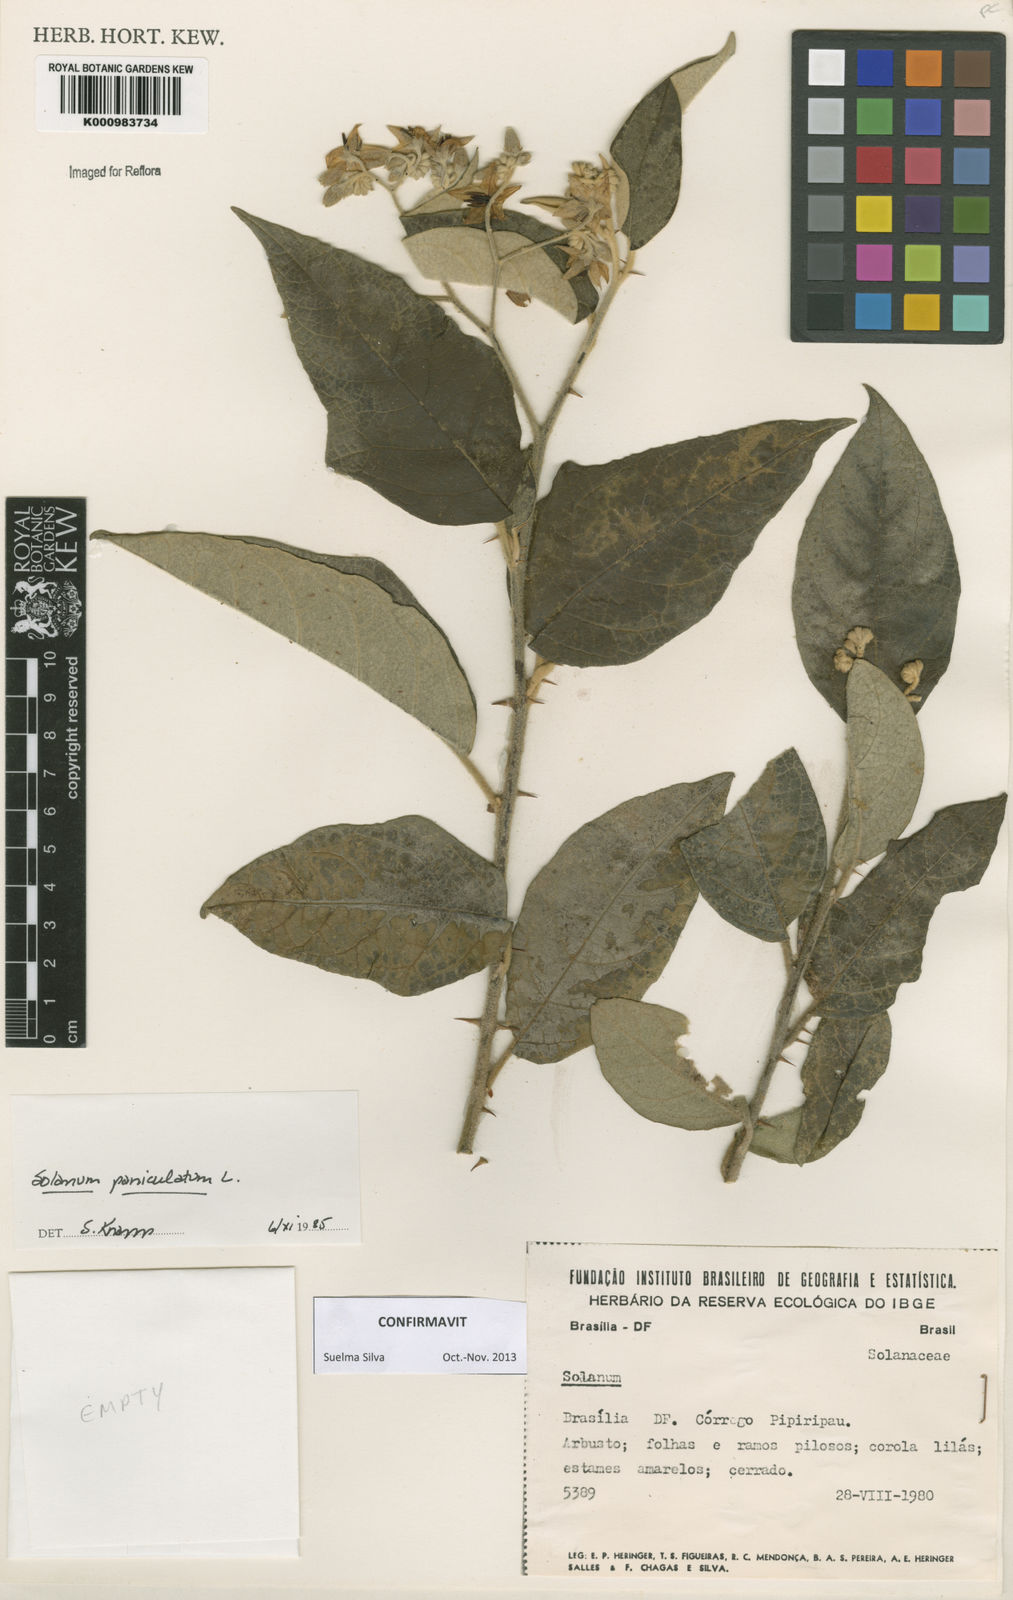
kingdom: Plantae
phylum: Tracheophyta
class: Magnoliopsida
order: Solanales
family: Solanaceae
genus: Solanum
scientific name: Solanum paniculatum
